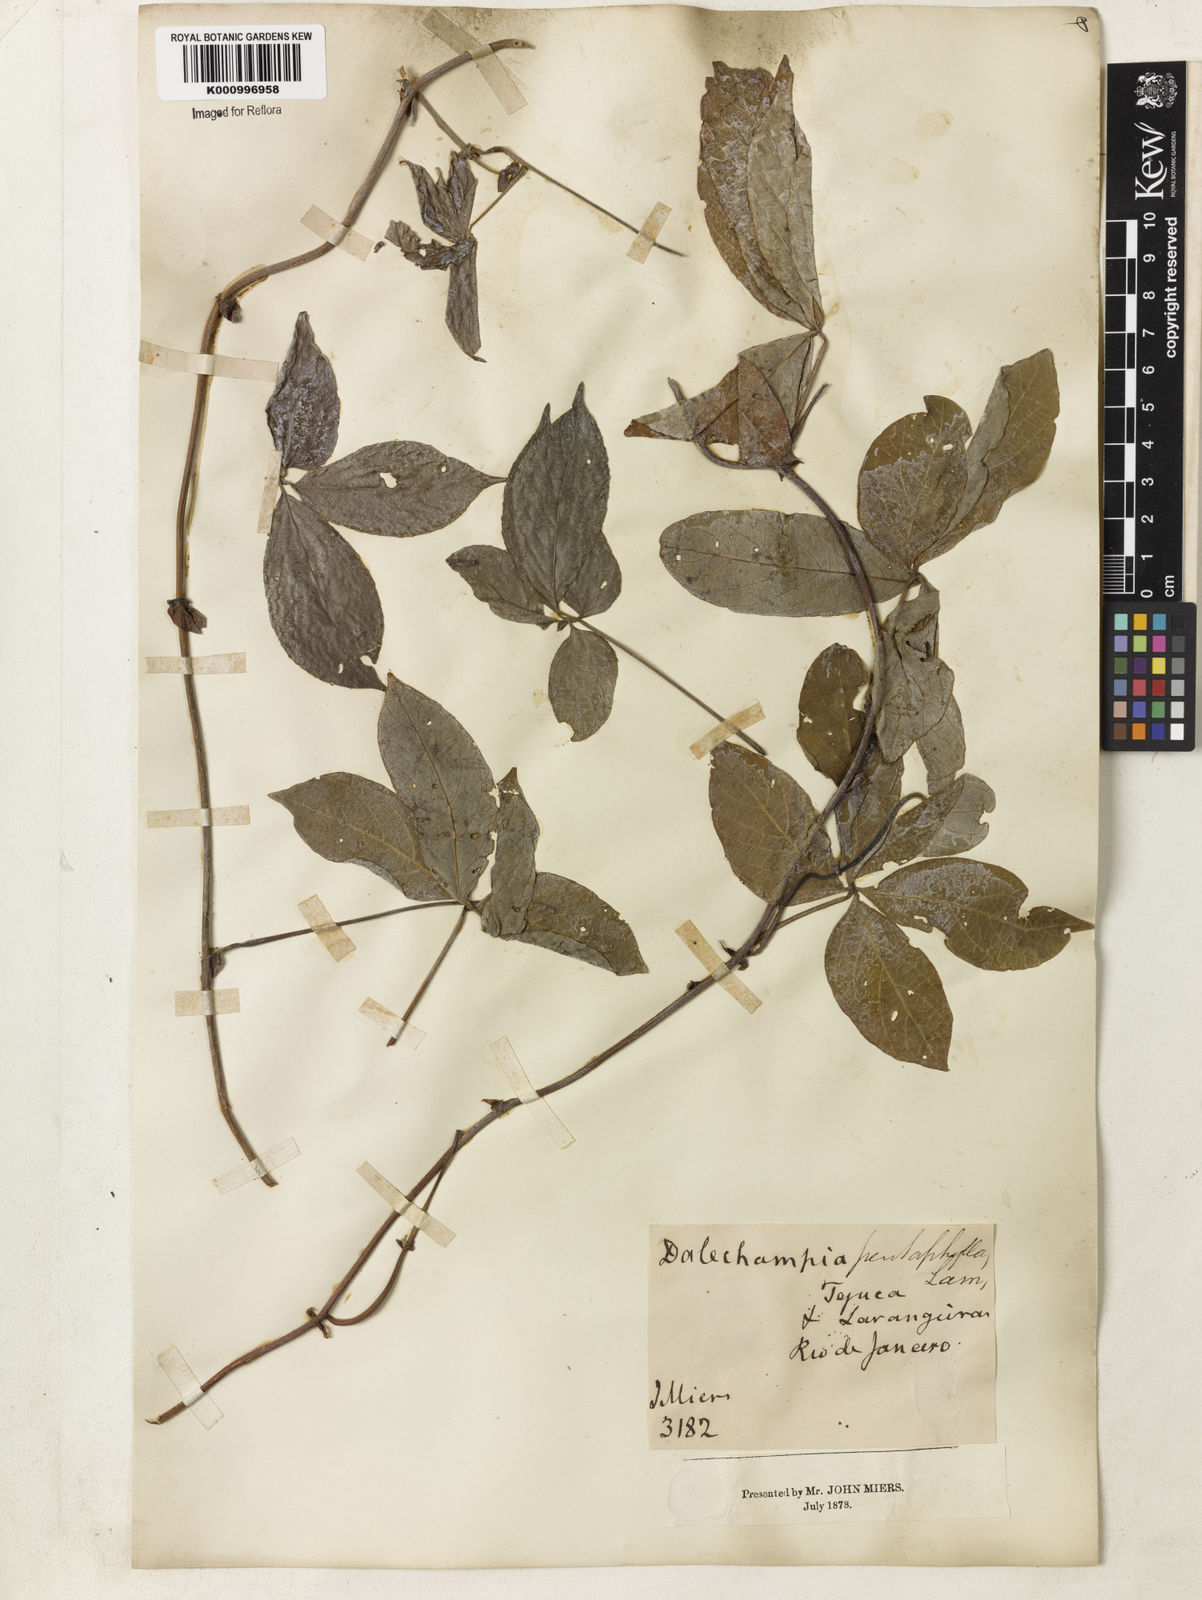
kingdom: Plantae
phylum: Tracheophyta
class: Magnoliopsida
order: Malpighiales
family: Euphorbiaceae
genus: Dalechampia
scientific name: Dalechampia pentaphylla
